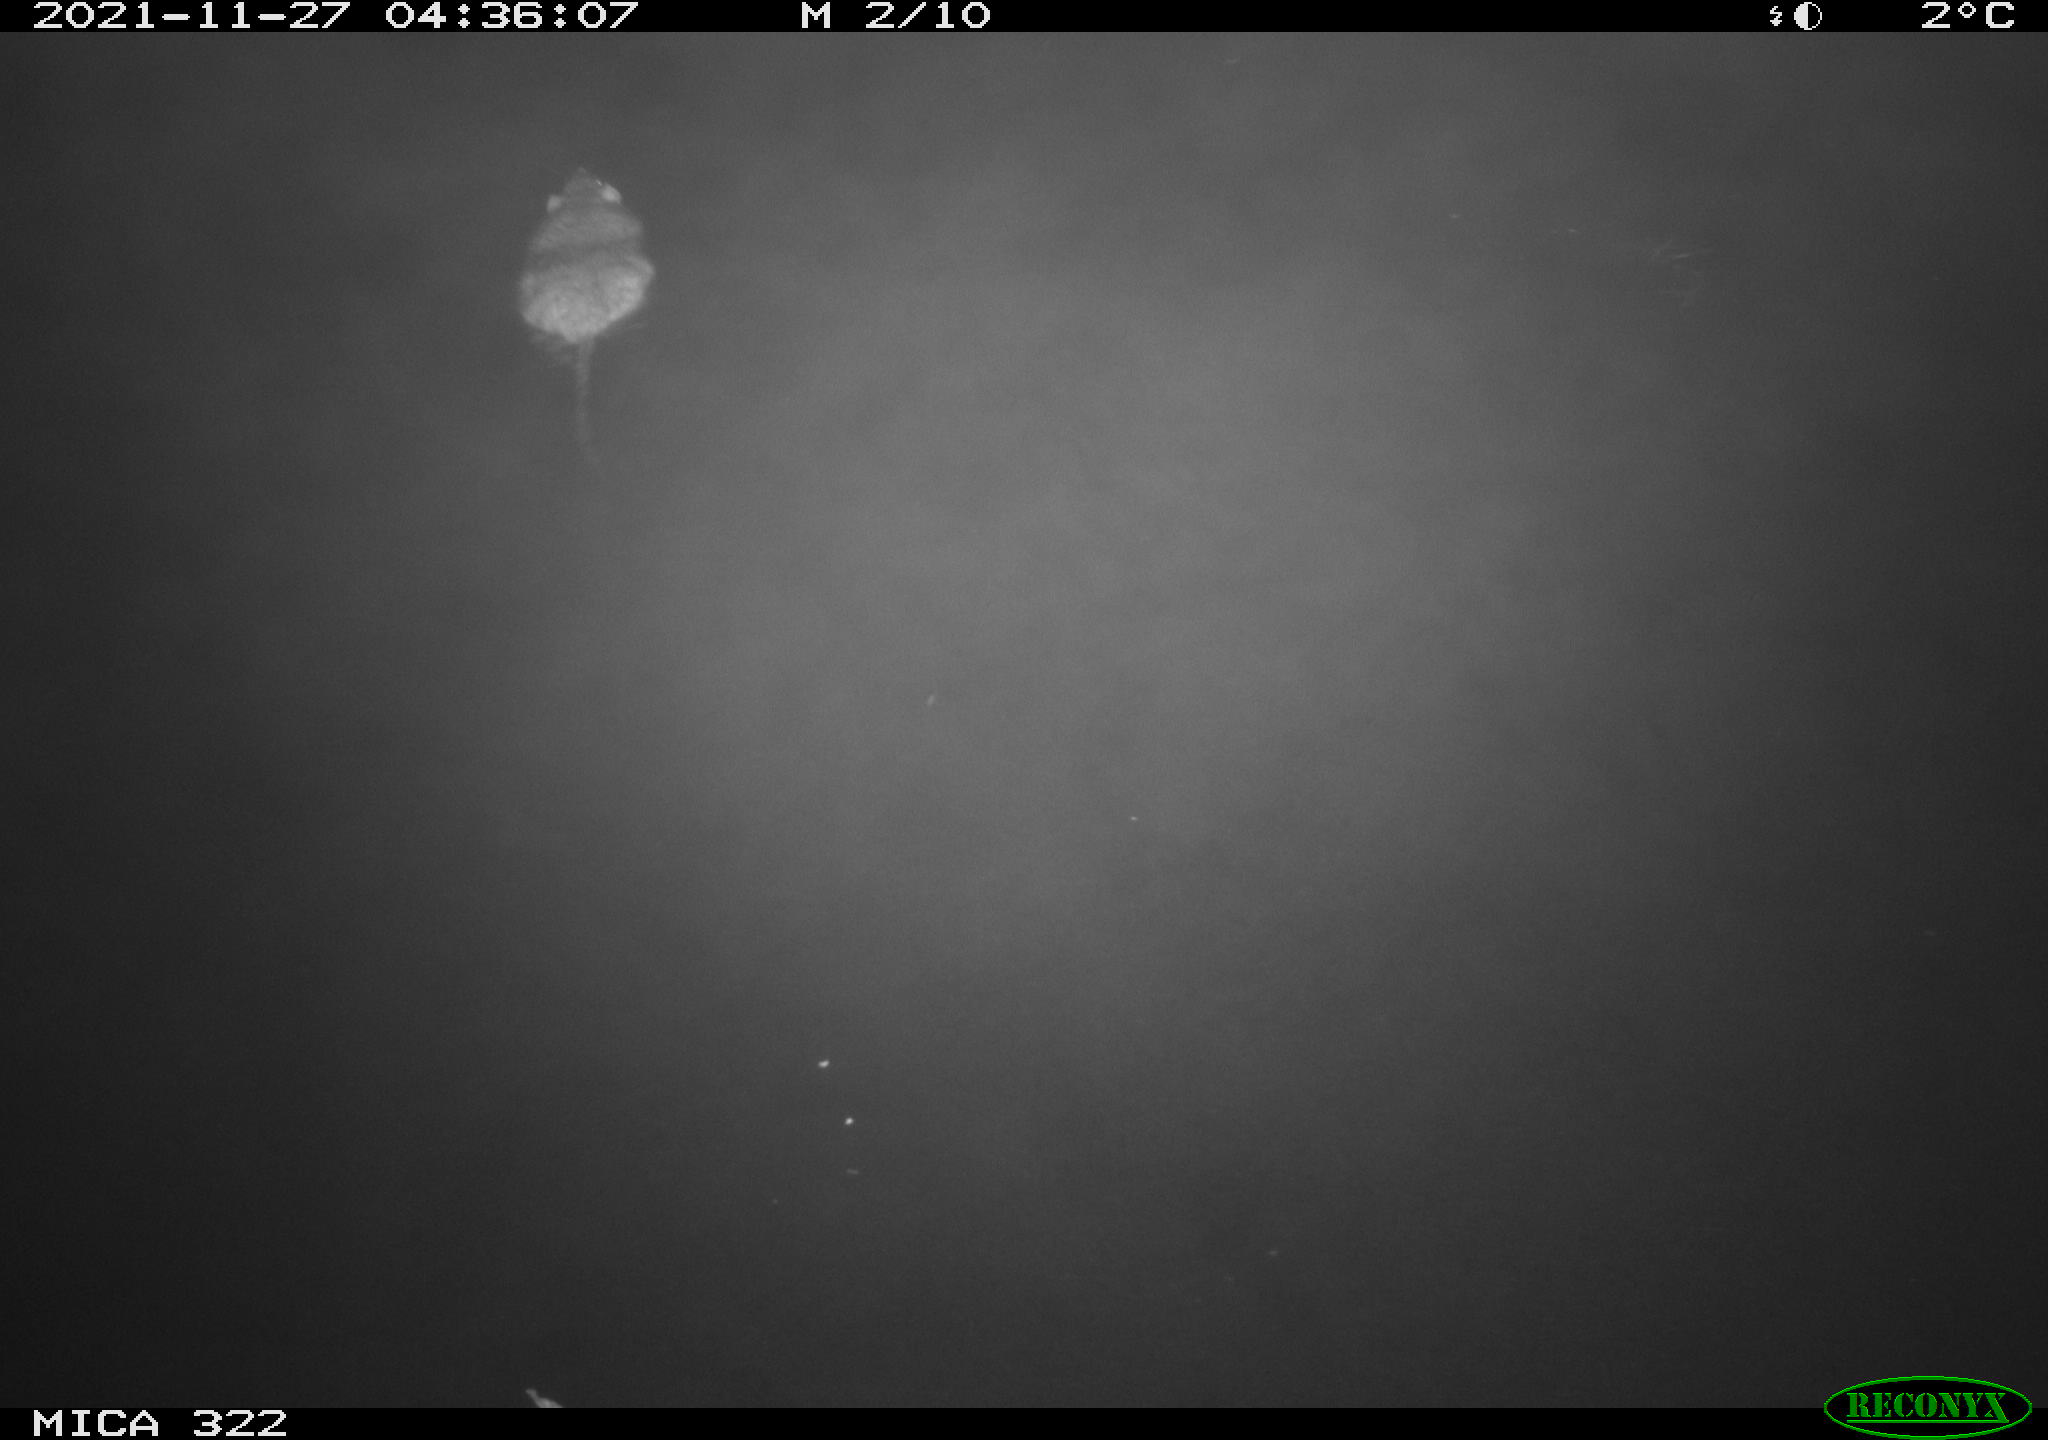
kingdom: Animalia
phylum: Chordata
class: Mammalia
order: Rodentia
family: Muridae
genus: Rattus
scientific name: Rattus norvegicus
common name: Brown rat
